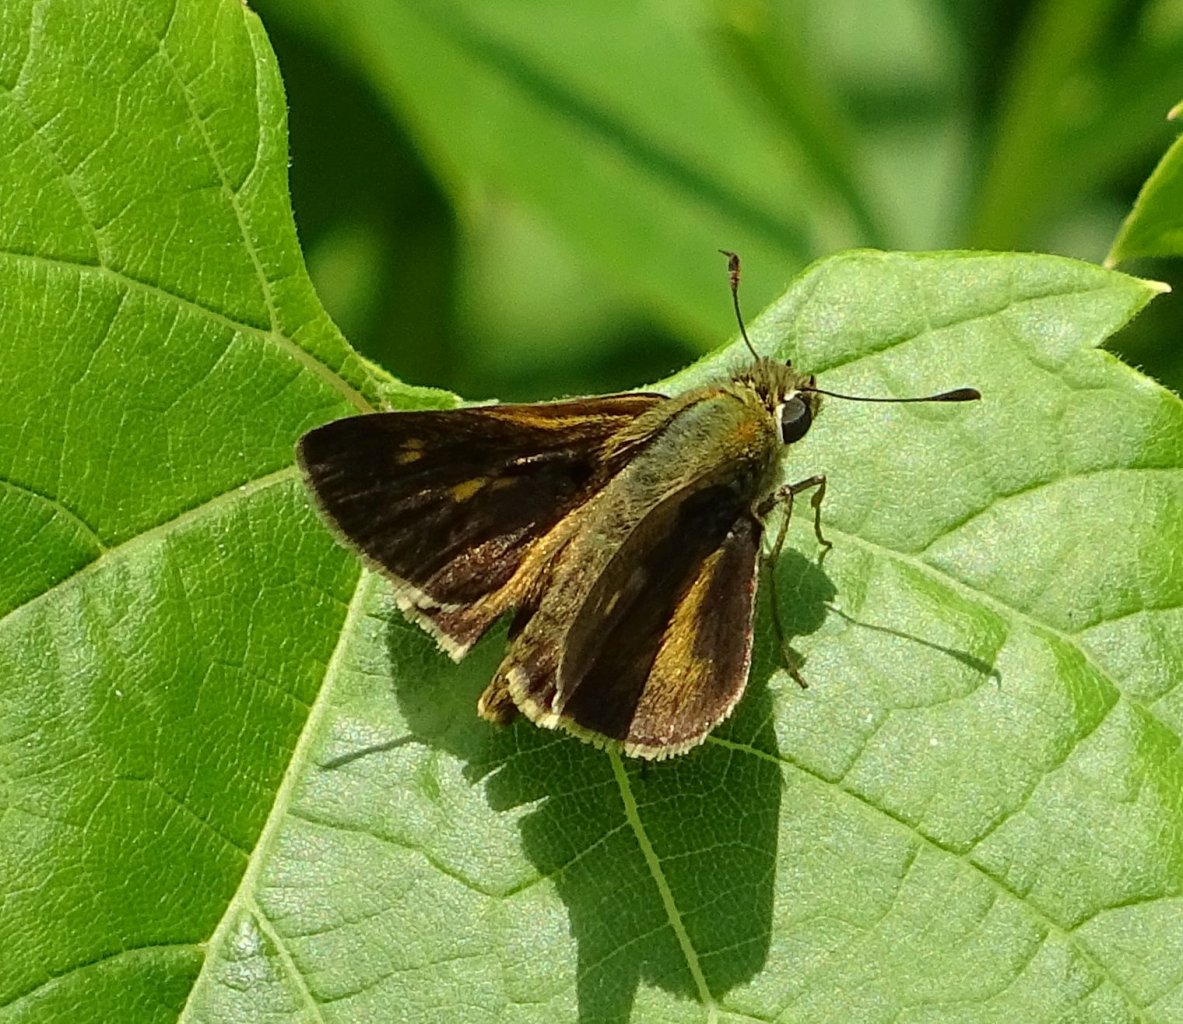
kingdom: Animalia
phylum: Arthropoda
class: Insecta
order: Lepidoptera
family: Hesperiidae
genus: Polites
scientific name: Polites egeremet
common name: Northern Broken-Dash
